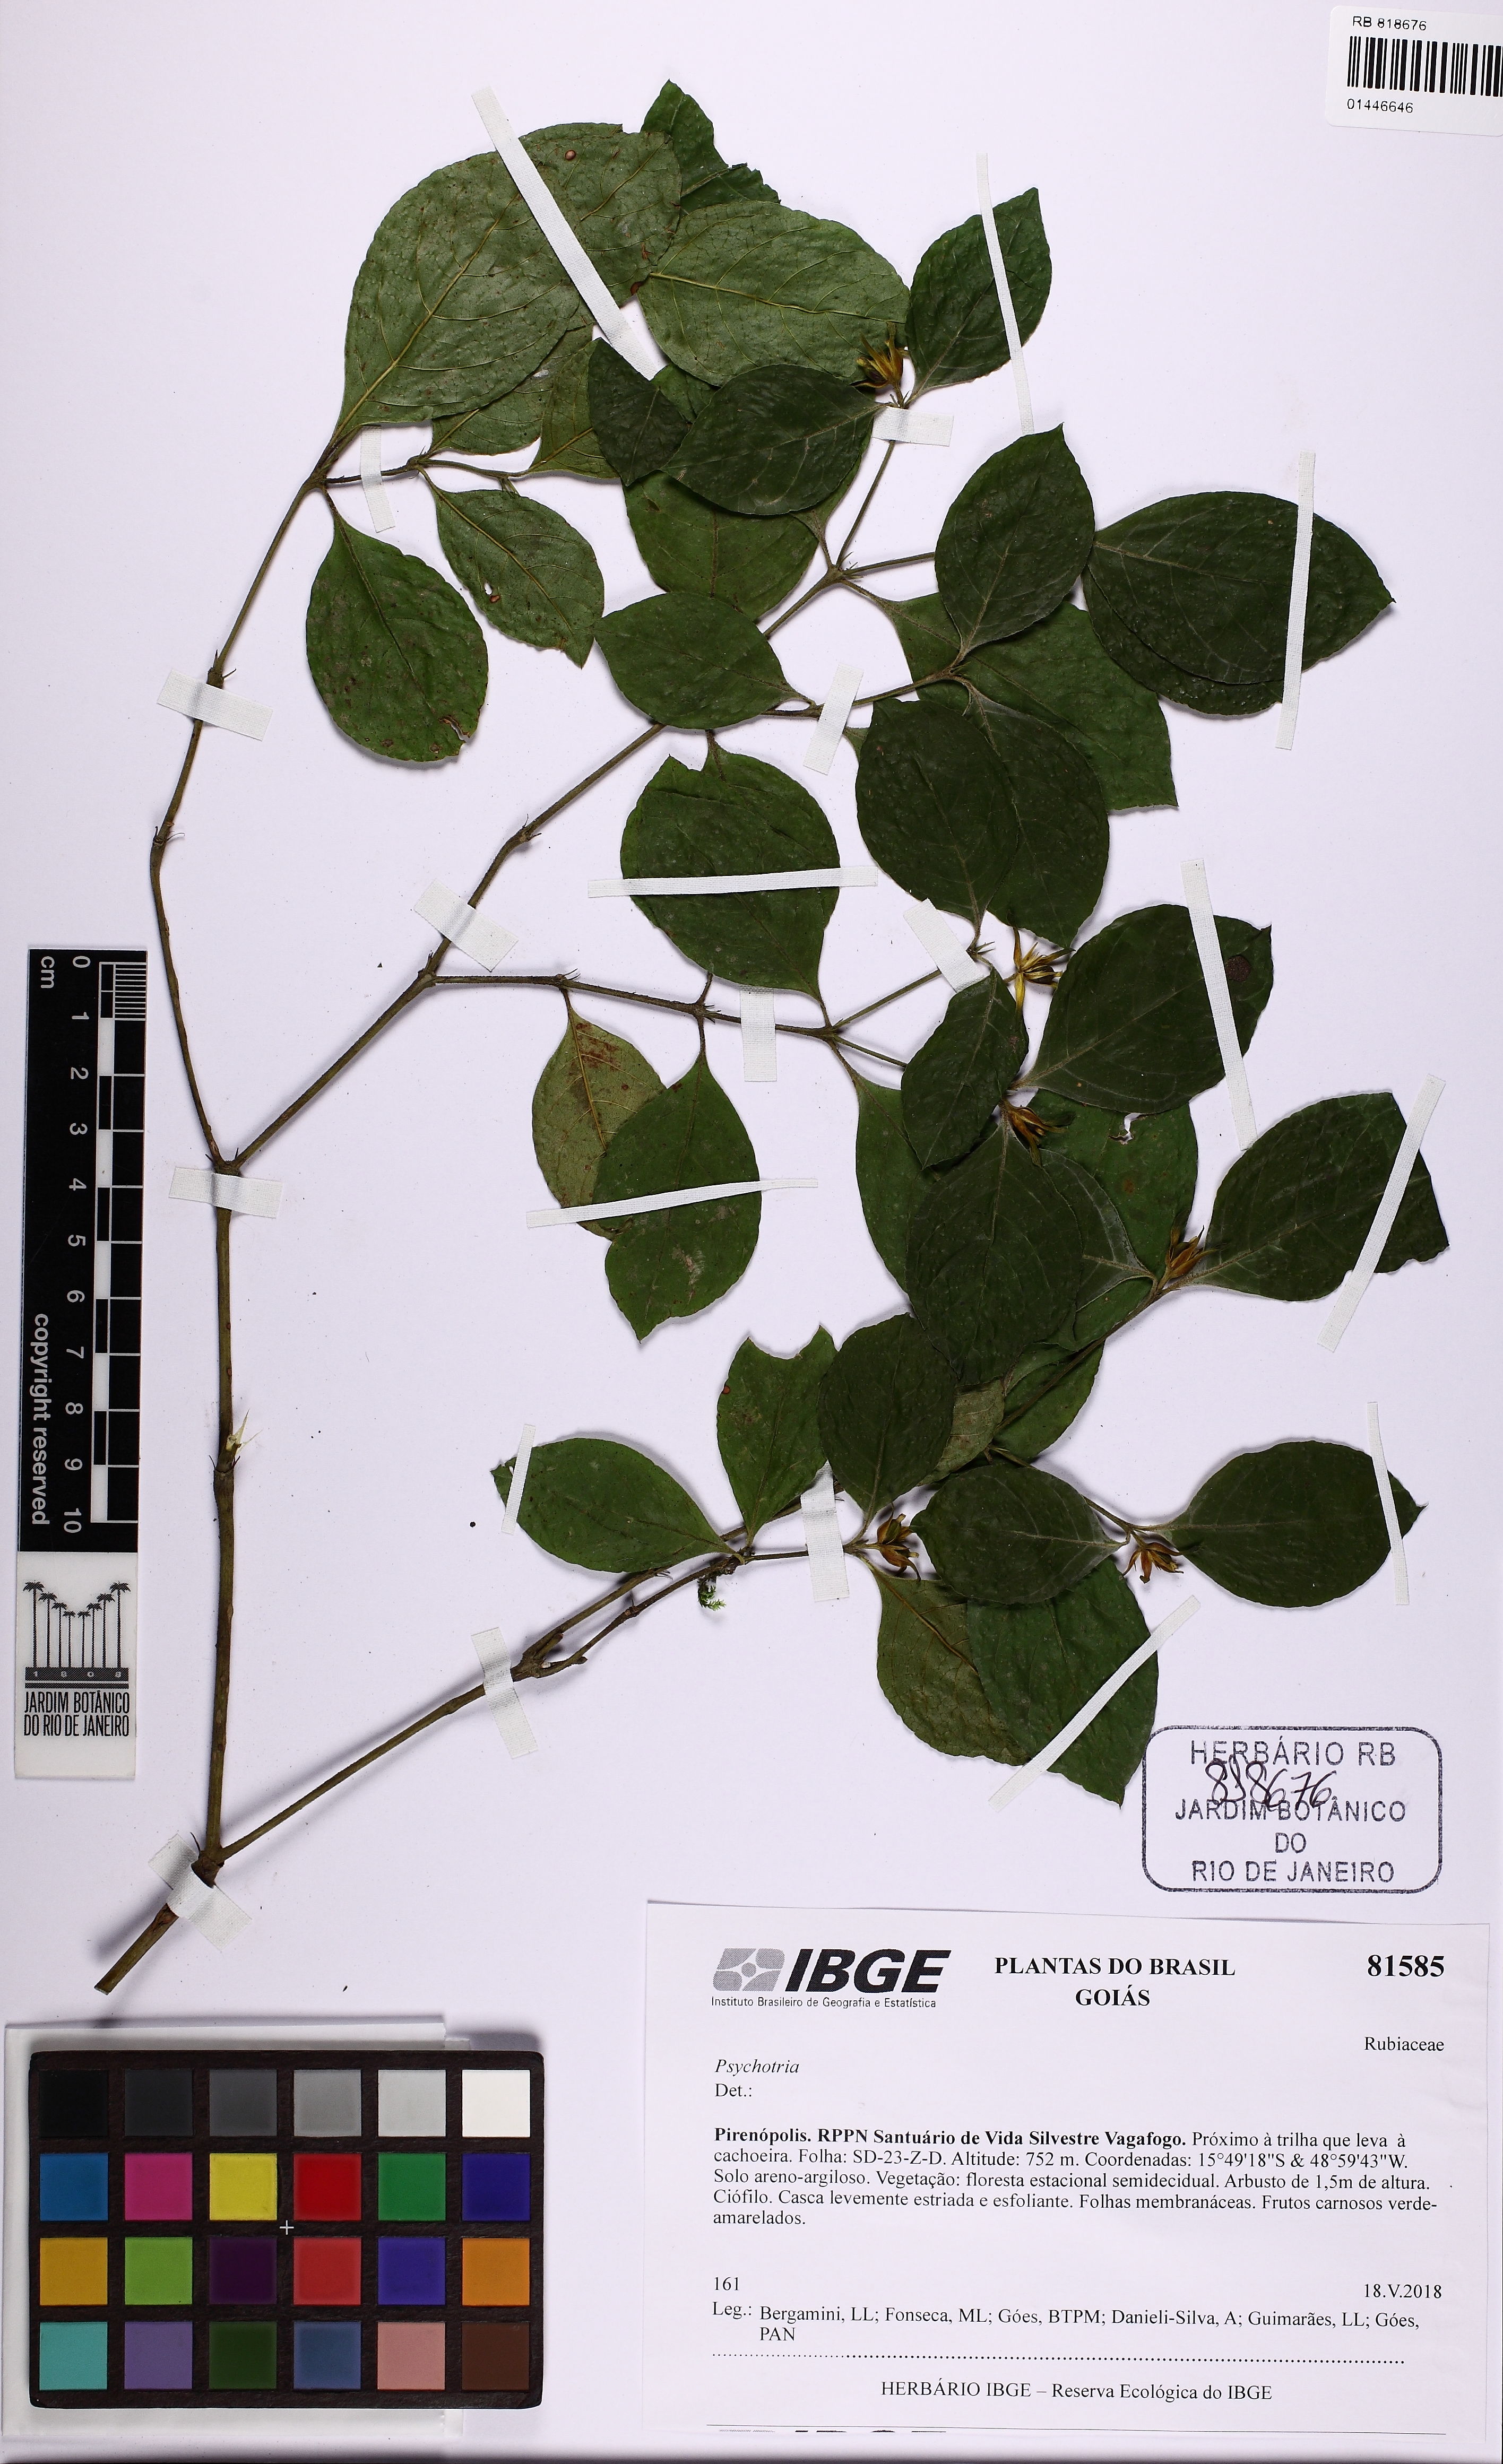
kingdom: Plantae
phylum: Tracheophyta
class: Magnoliopsida
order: Gentianales
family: Rubiaceae
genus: Palicourea
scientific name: Palicourea prunifolia
